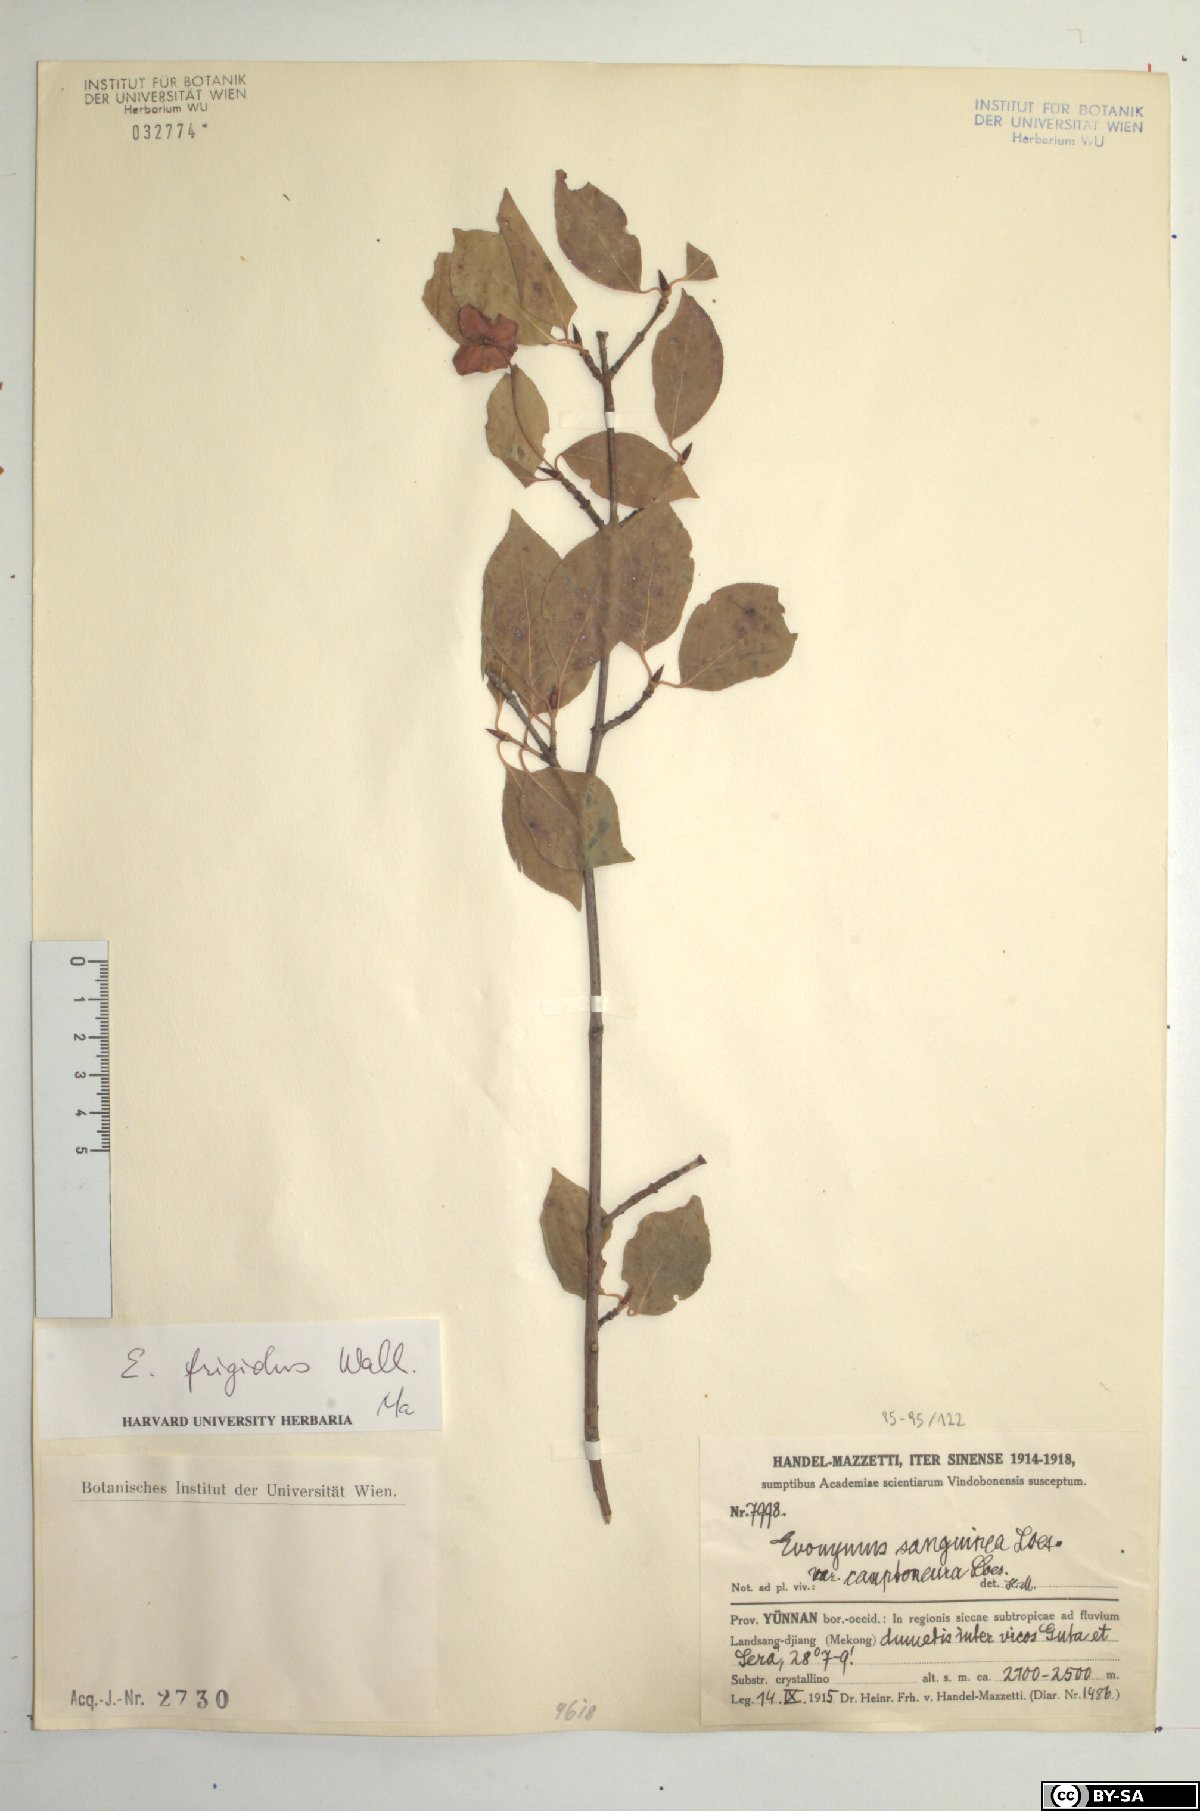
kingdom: Plantae
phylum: Tracheophyta
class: Magnoliopsida
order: Celastrales
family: Celastraceae
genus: Euonymus
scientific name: Euonymus frigidus
